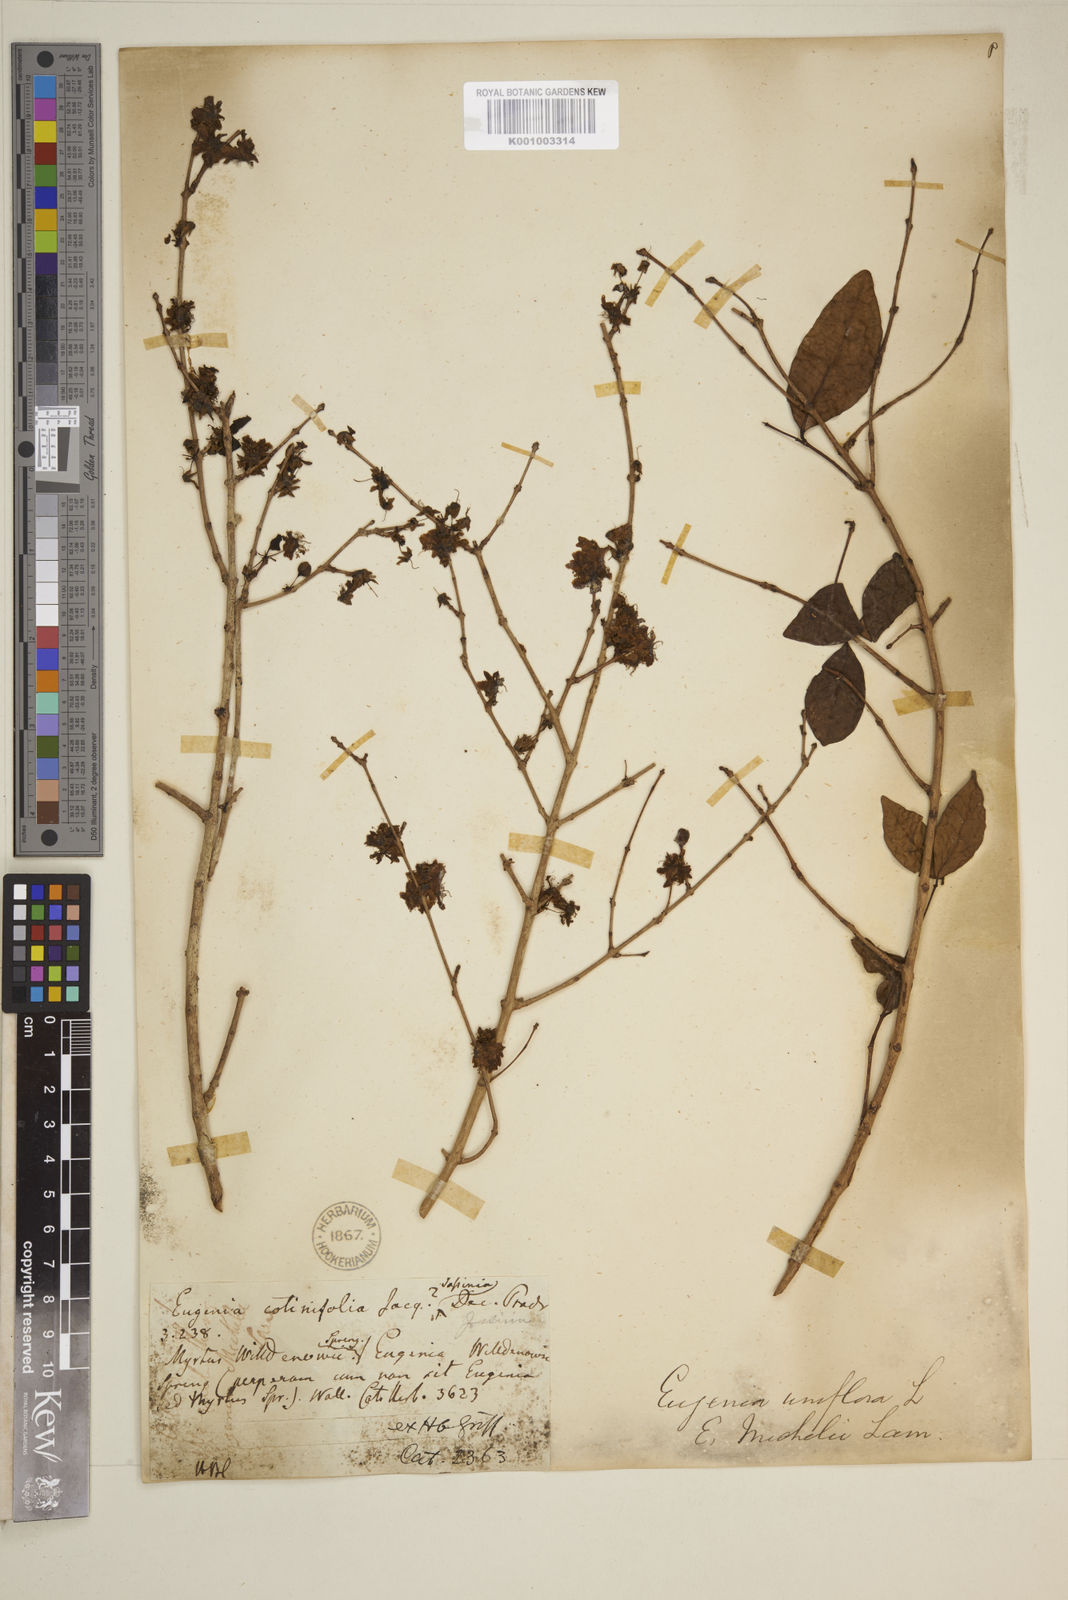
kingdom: Plantae
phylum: Tracheophyta
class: Magnoliopsida
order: Myrtales
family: Myrtaceae
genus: Eugenia
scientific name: Eugenia uniflora
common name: Surinam cherry
